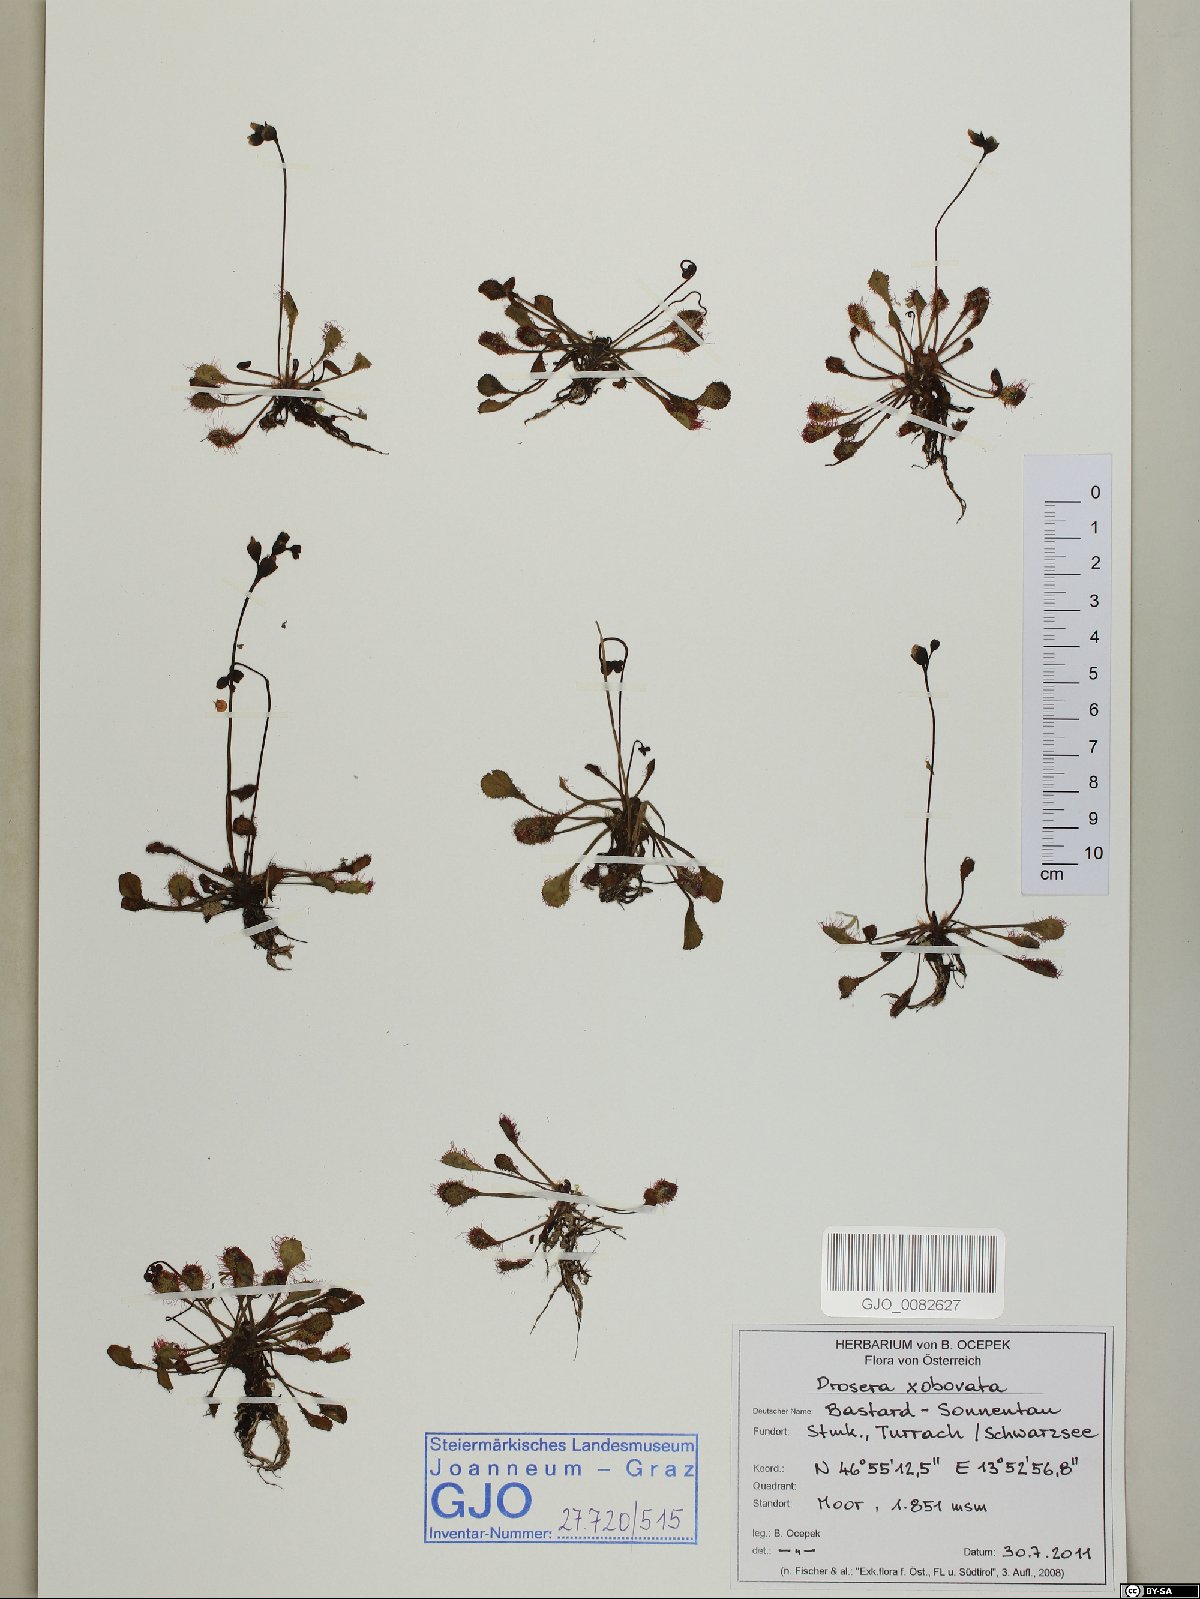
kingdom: Plantae
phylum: Tracheophyta
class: Magnoliopsida
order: Caryophyllales
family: Droseraceae
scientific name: Droseraceae
